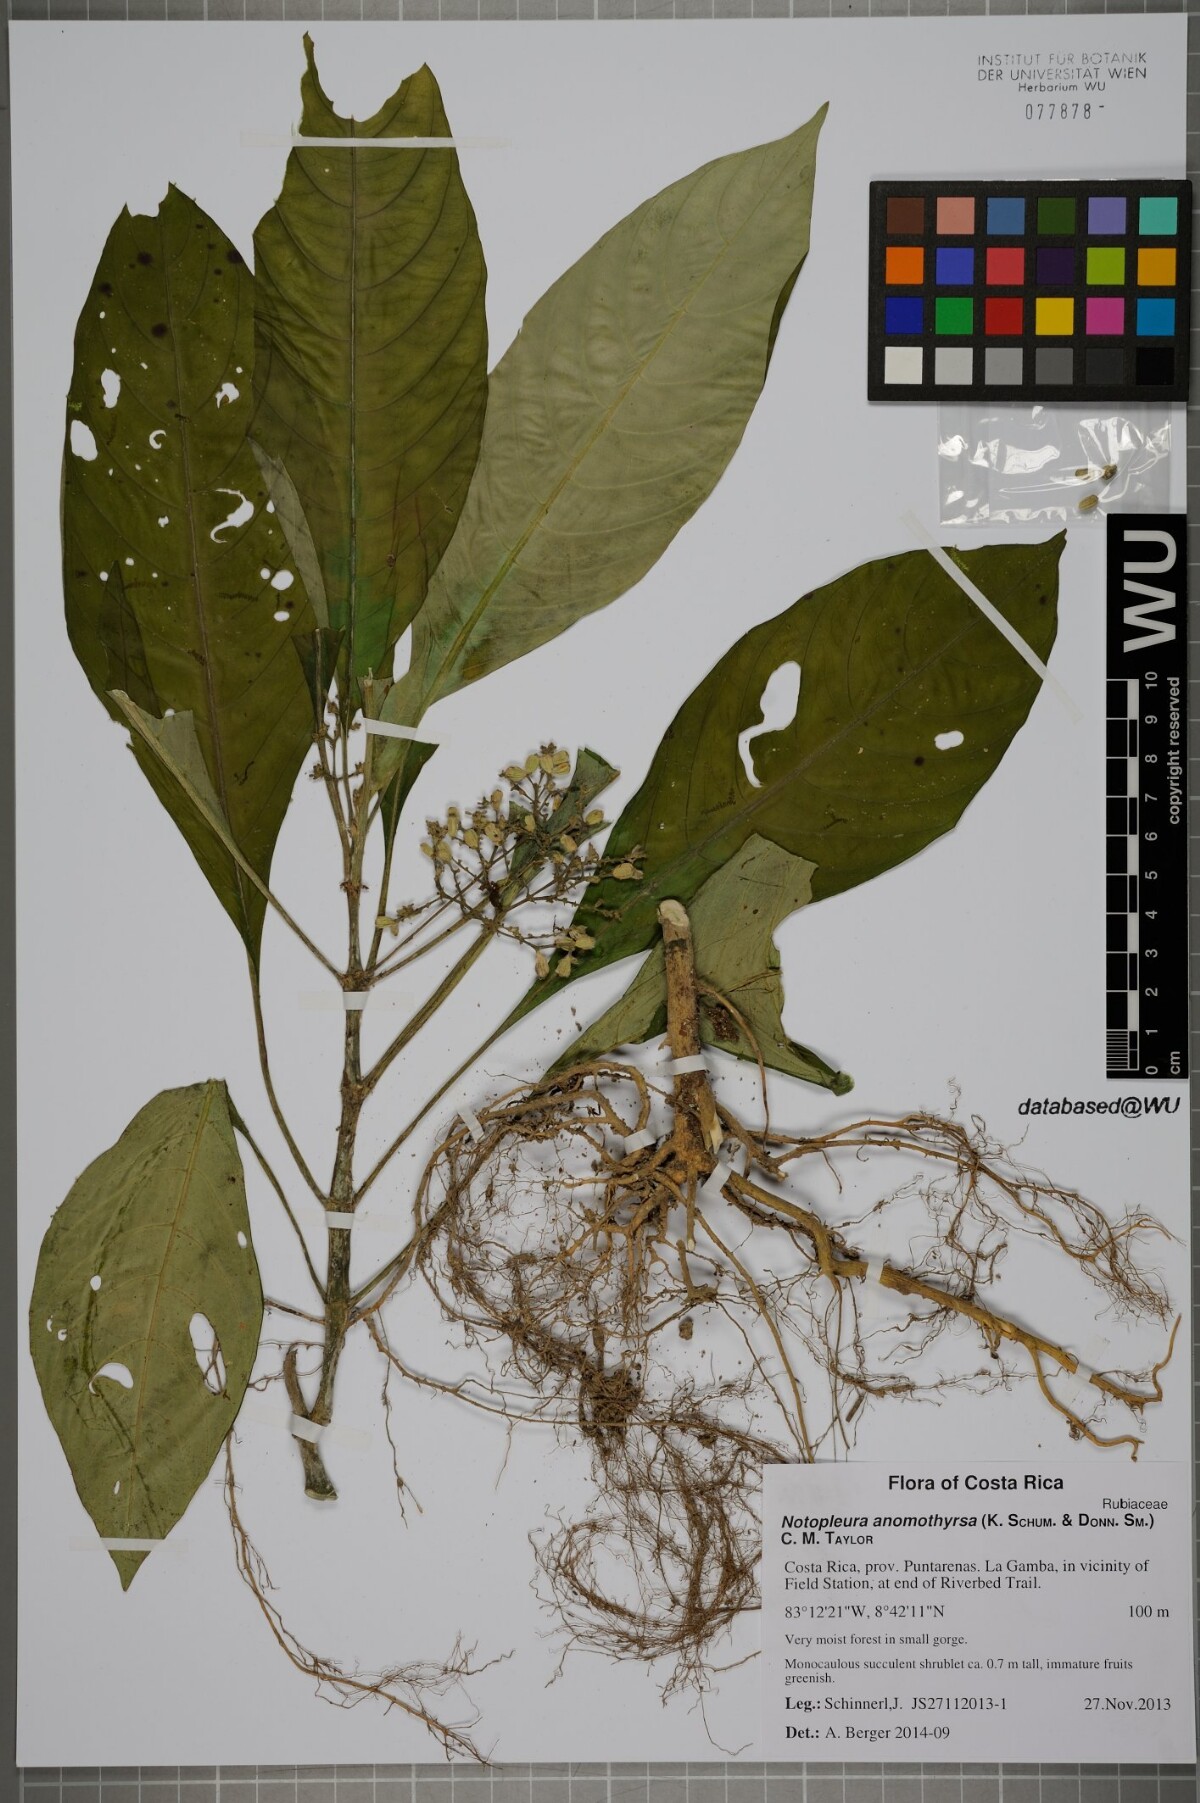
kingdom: Plantae
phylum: Tracheophyta
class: Magnoliopsida
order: Gentianales
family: Rubiaceae
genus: Notopleura
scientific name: Notopleura anomothyrsa
